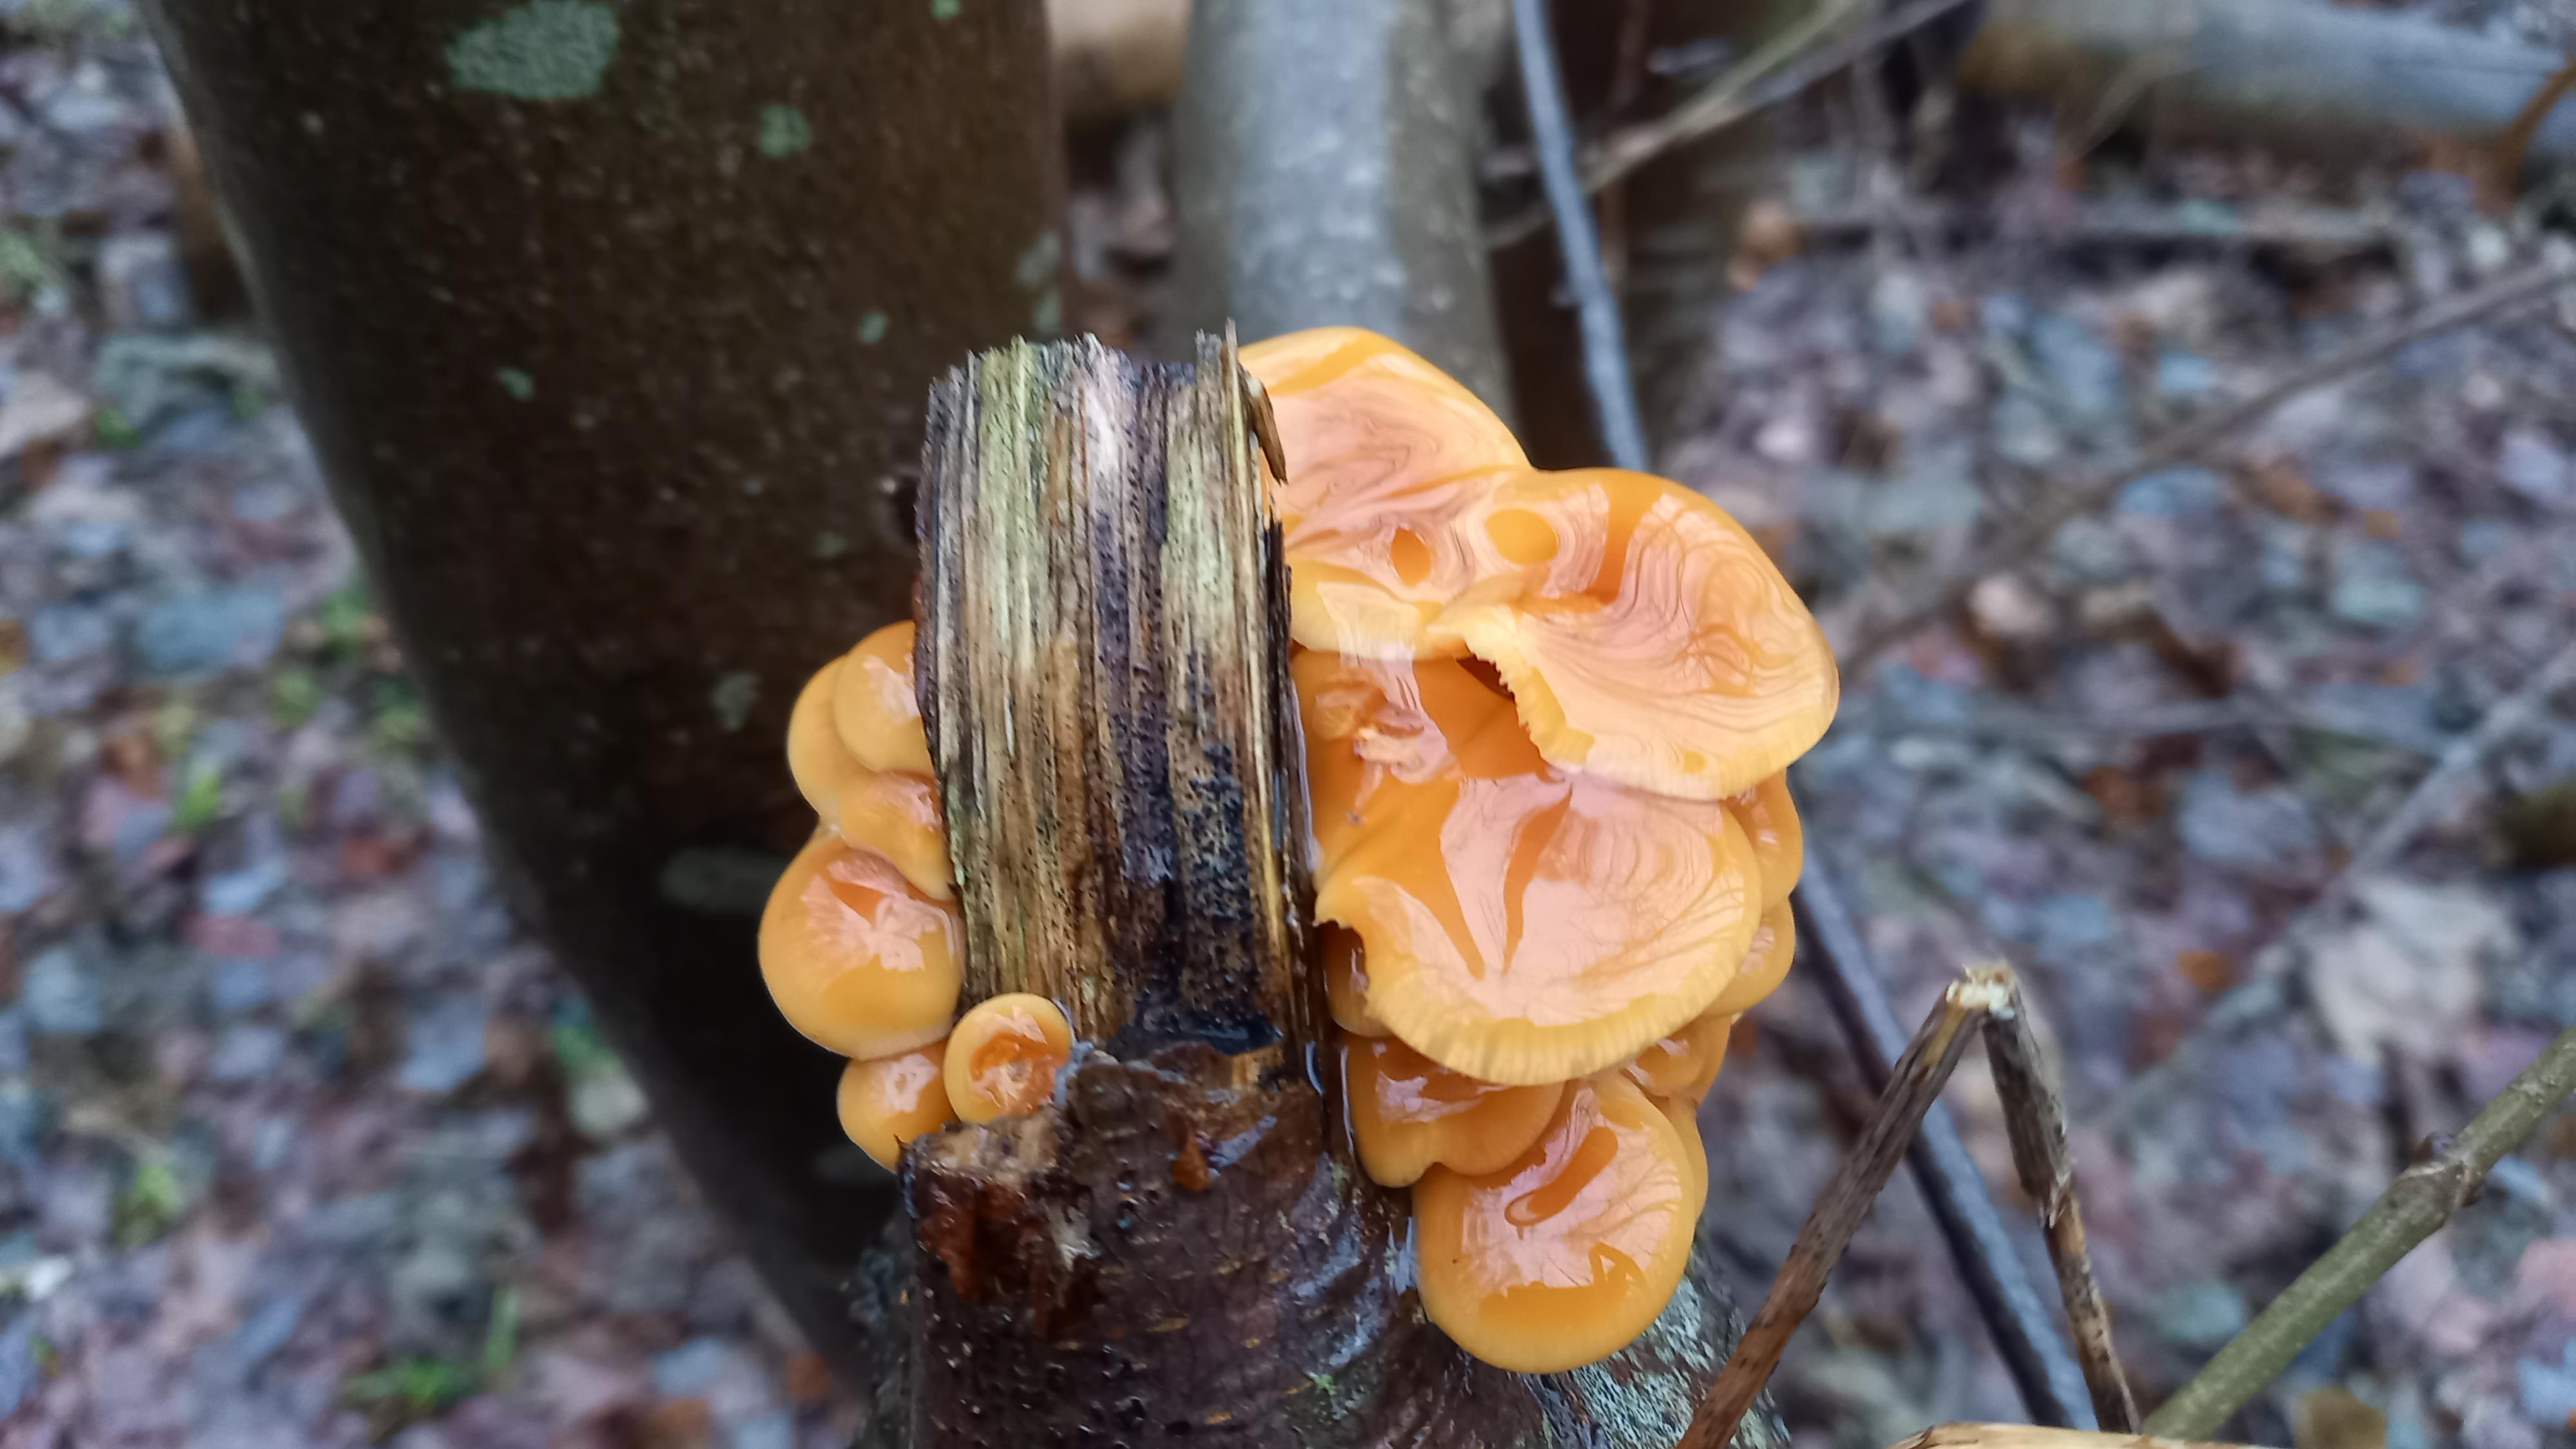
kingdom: Fungi
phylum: Basidiomycota
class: Agaricomycetes
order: Agaricales
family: Physalacriaceae
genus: Flammulina
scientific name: Flammulina velutipes
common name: gul fløjlsfod
